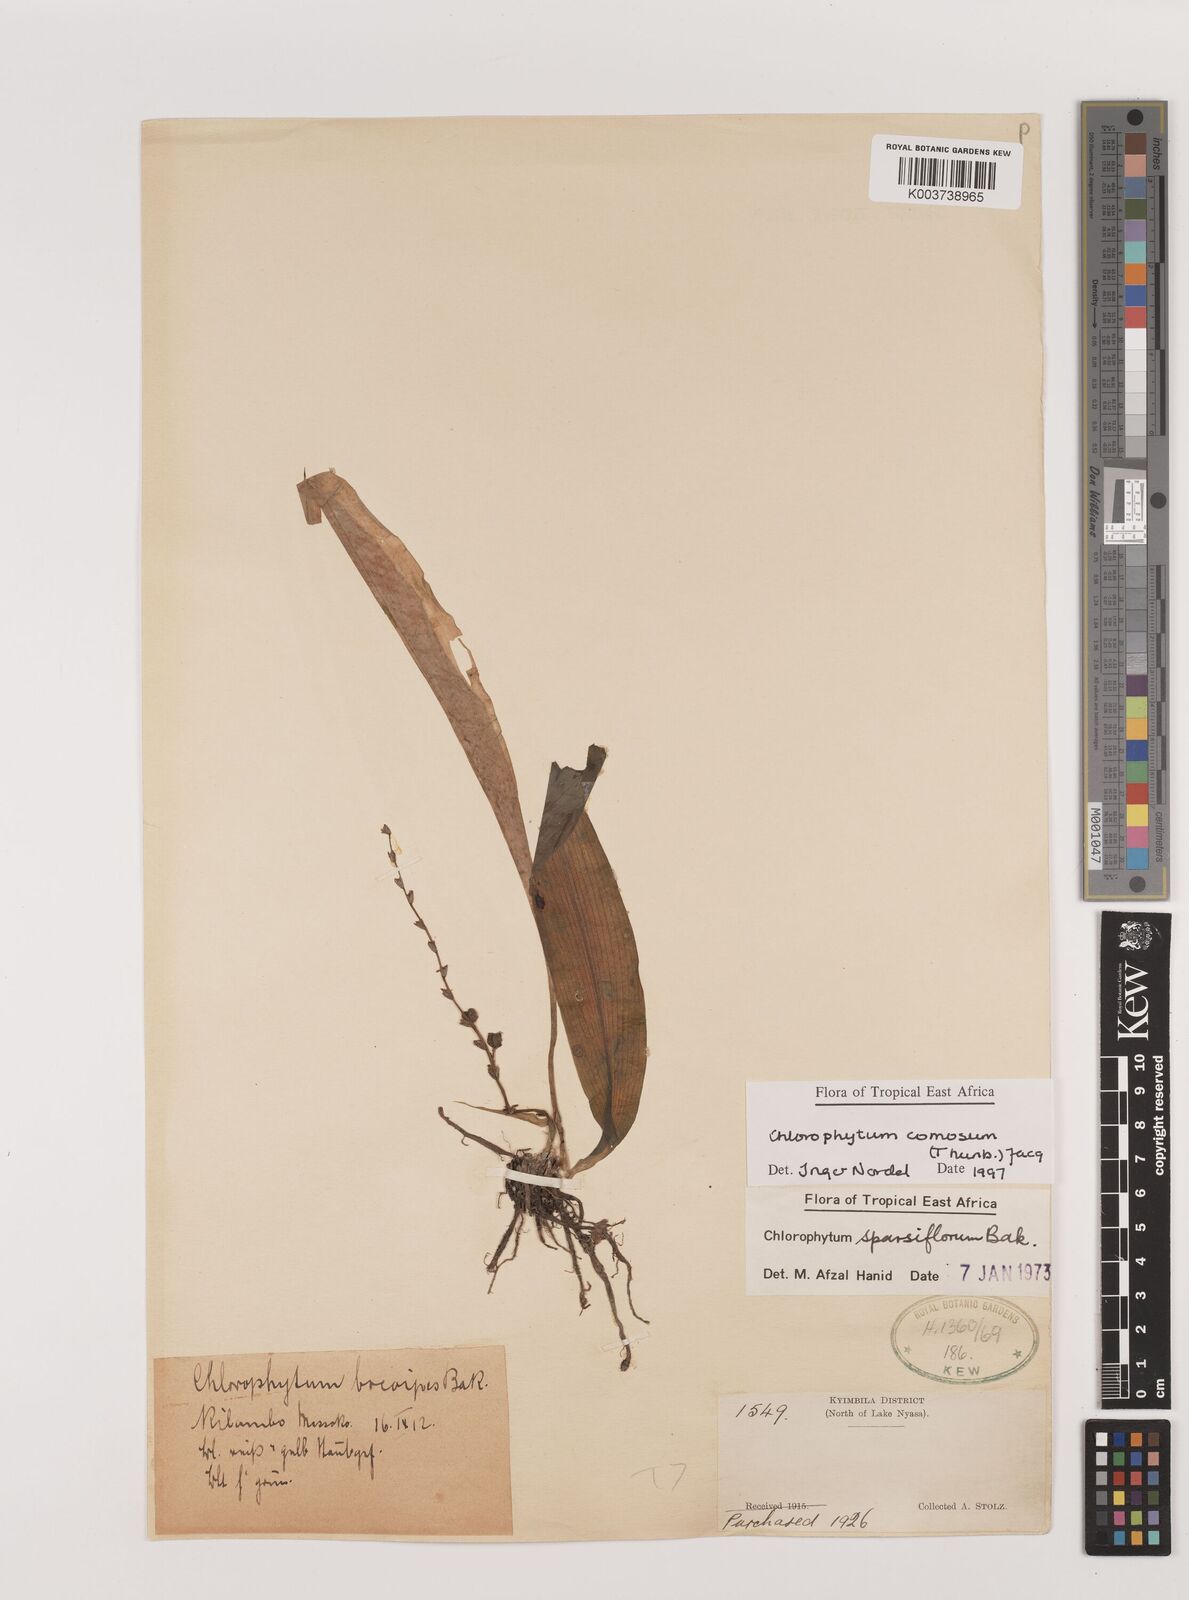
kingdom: Plantae
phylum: Tracheophyta
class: Liliopsida
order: Asparagales
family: Asparagaceae
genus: Chlorophytum
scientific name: Chlorophytum comosum
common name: Spider plant
